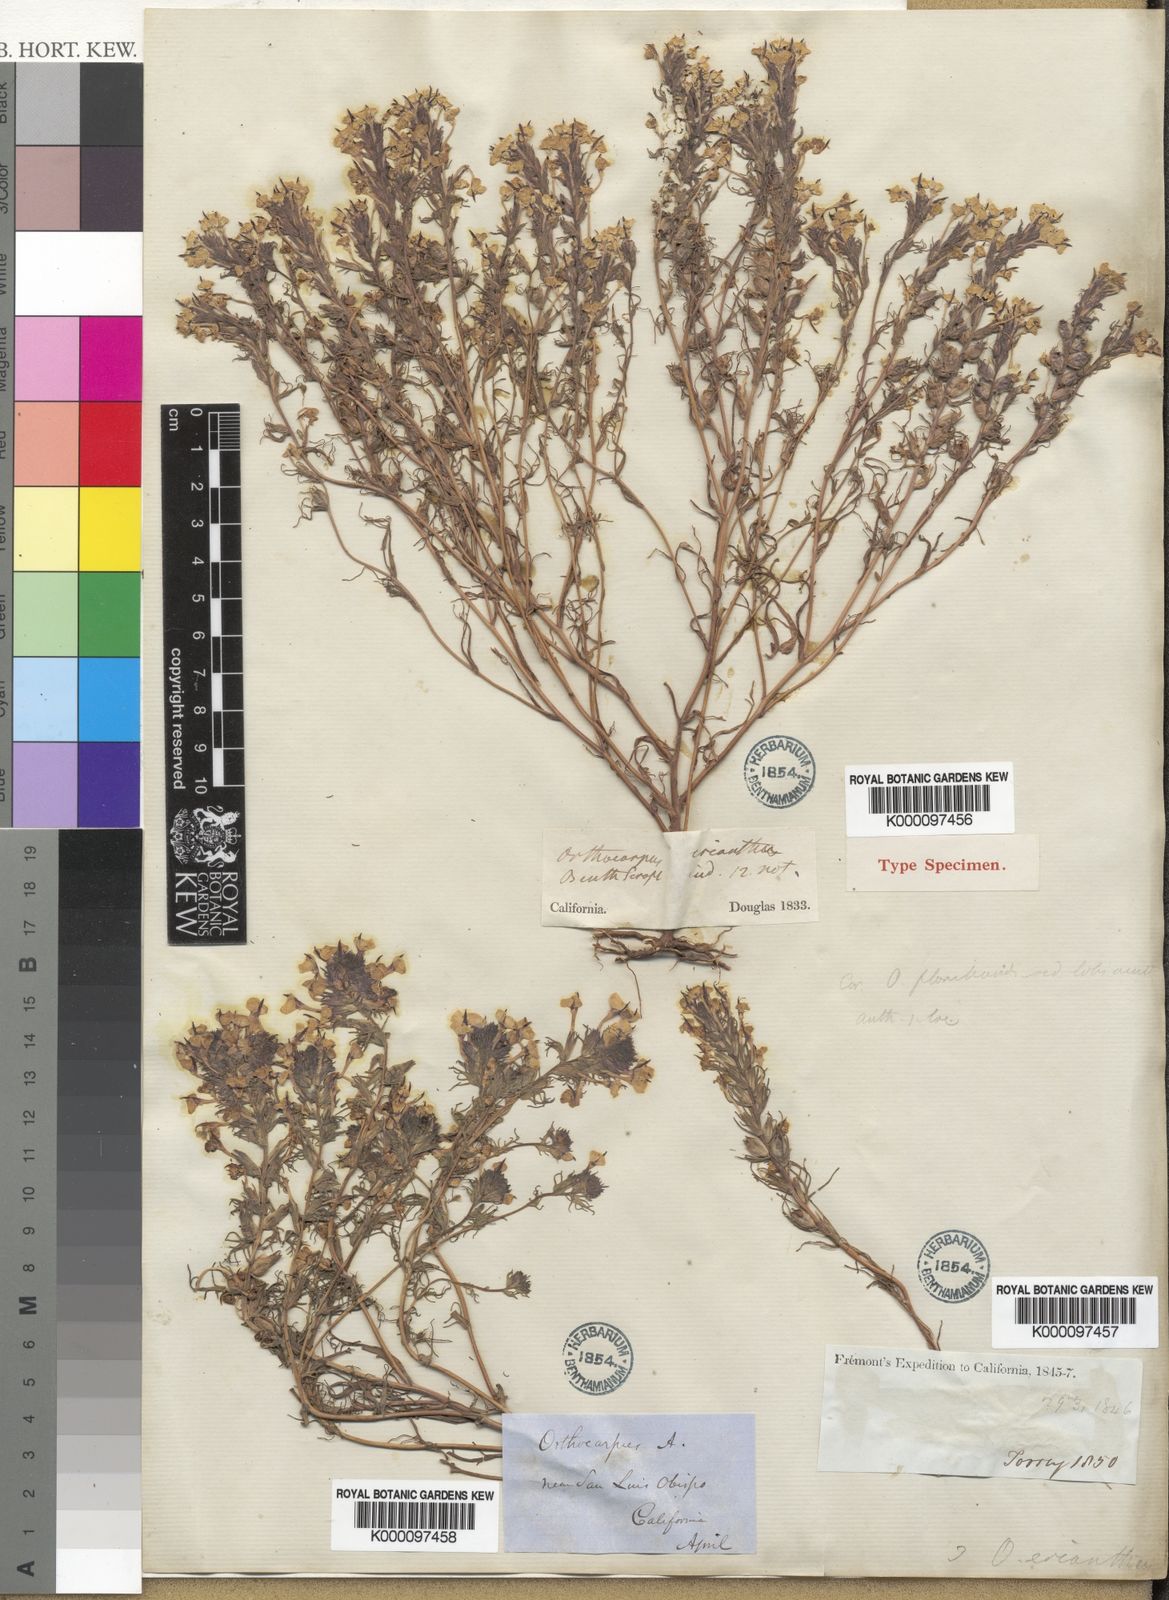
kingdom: Plantae
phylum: Tracheophyta
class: Magnoliopsida
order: Lamiales
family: Orobanchaceae
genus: Triphysaria
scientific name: Triphysaria eriantha
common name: Johnny-tuck
